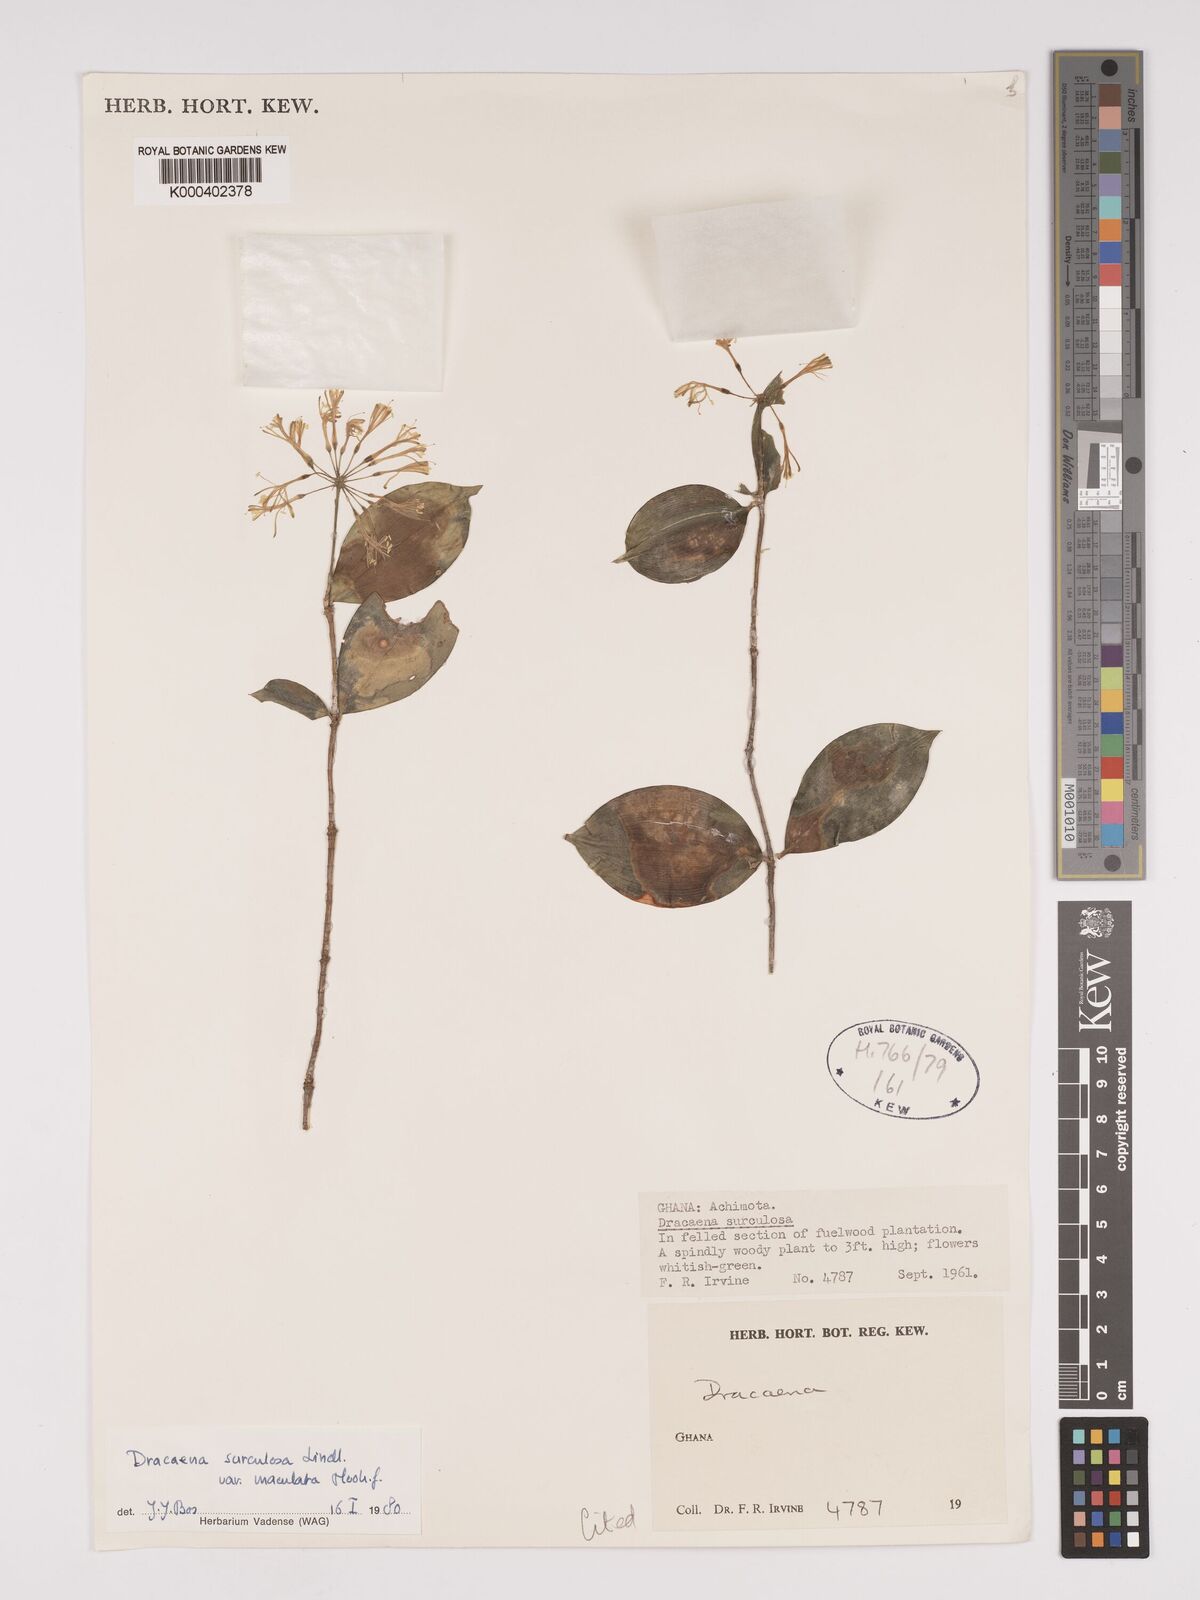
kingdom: Plantae
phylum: Tracheophyta
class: Liliopsida
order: Asparagales
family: Asparagaceae
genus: Dracaena
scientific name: Dracaena surculosa
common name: Spotted dracaena
